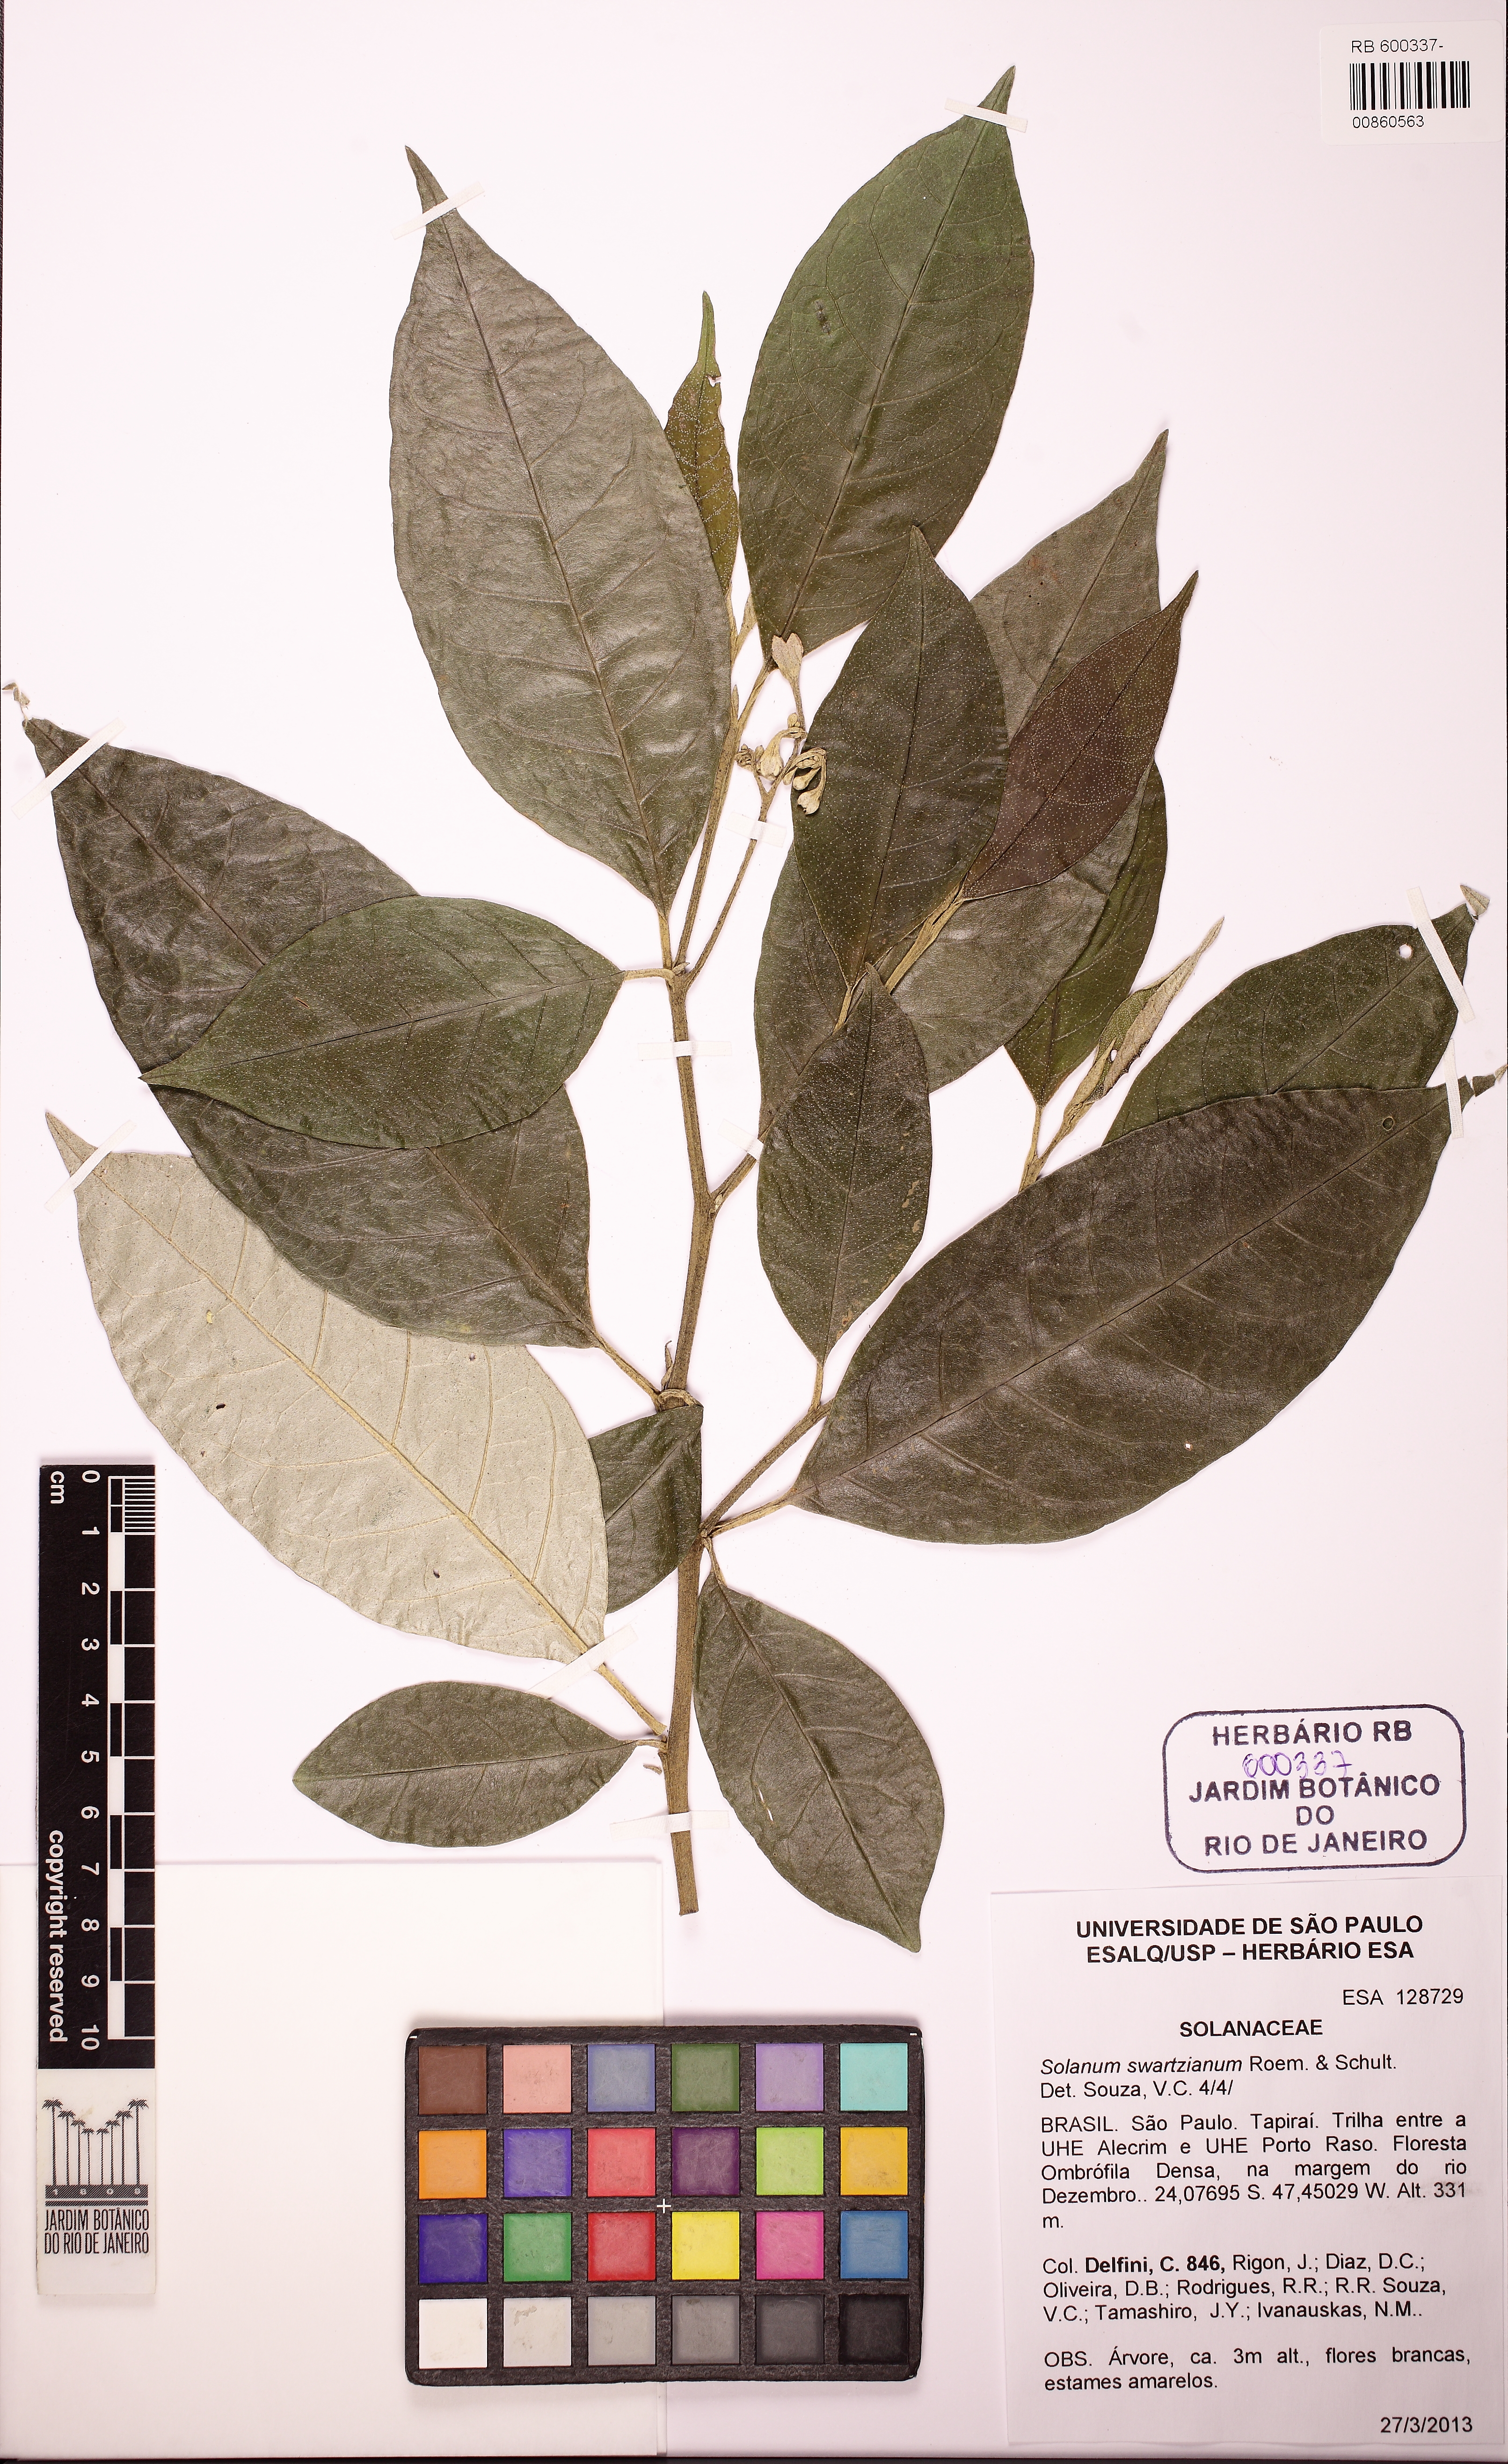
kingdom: Plantae
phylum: Tracheophyta
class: Magnoliopsida
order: Solanales
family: Solanaceae
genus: Solanum
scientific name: Solanum swartzianum
